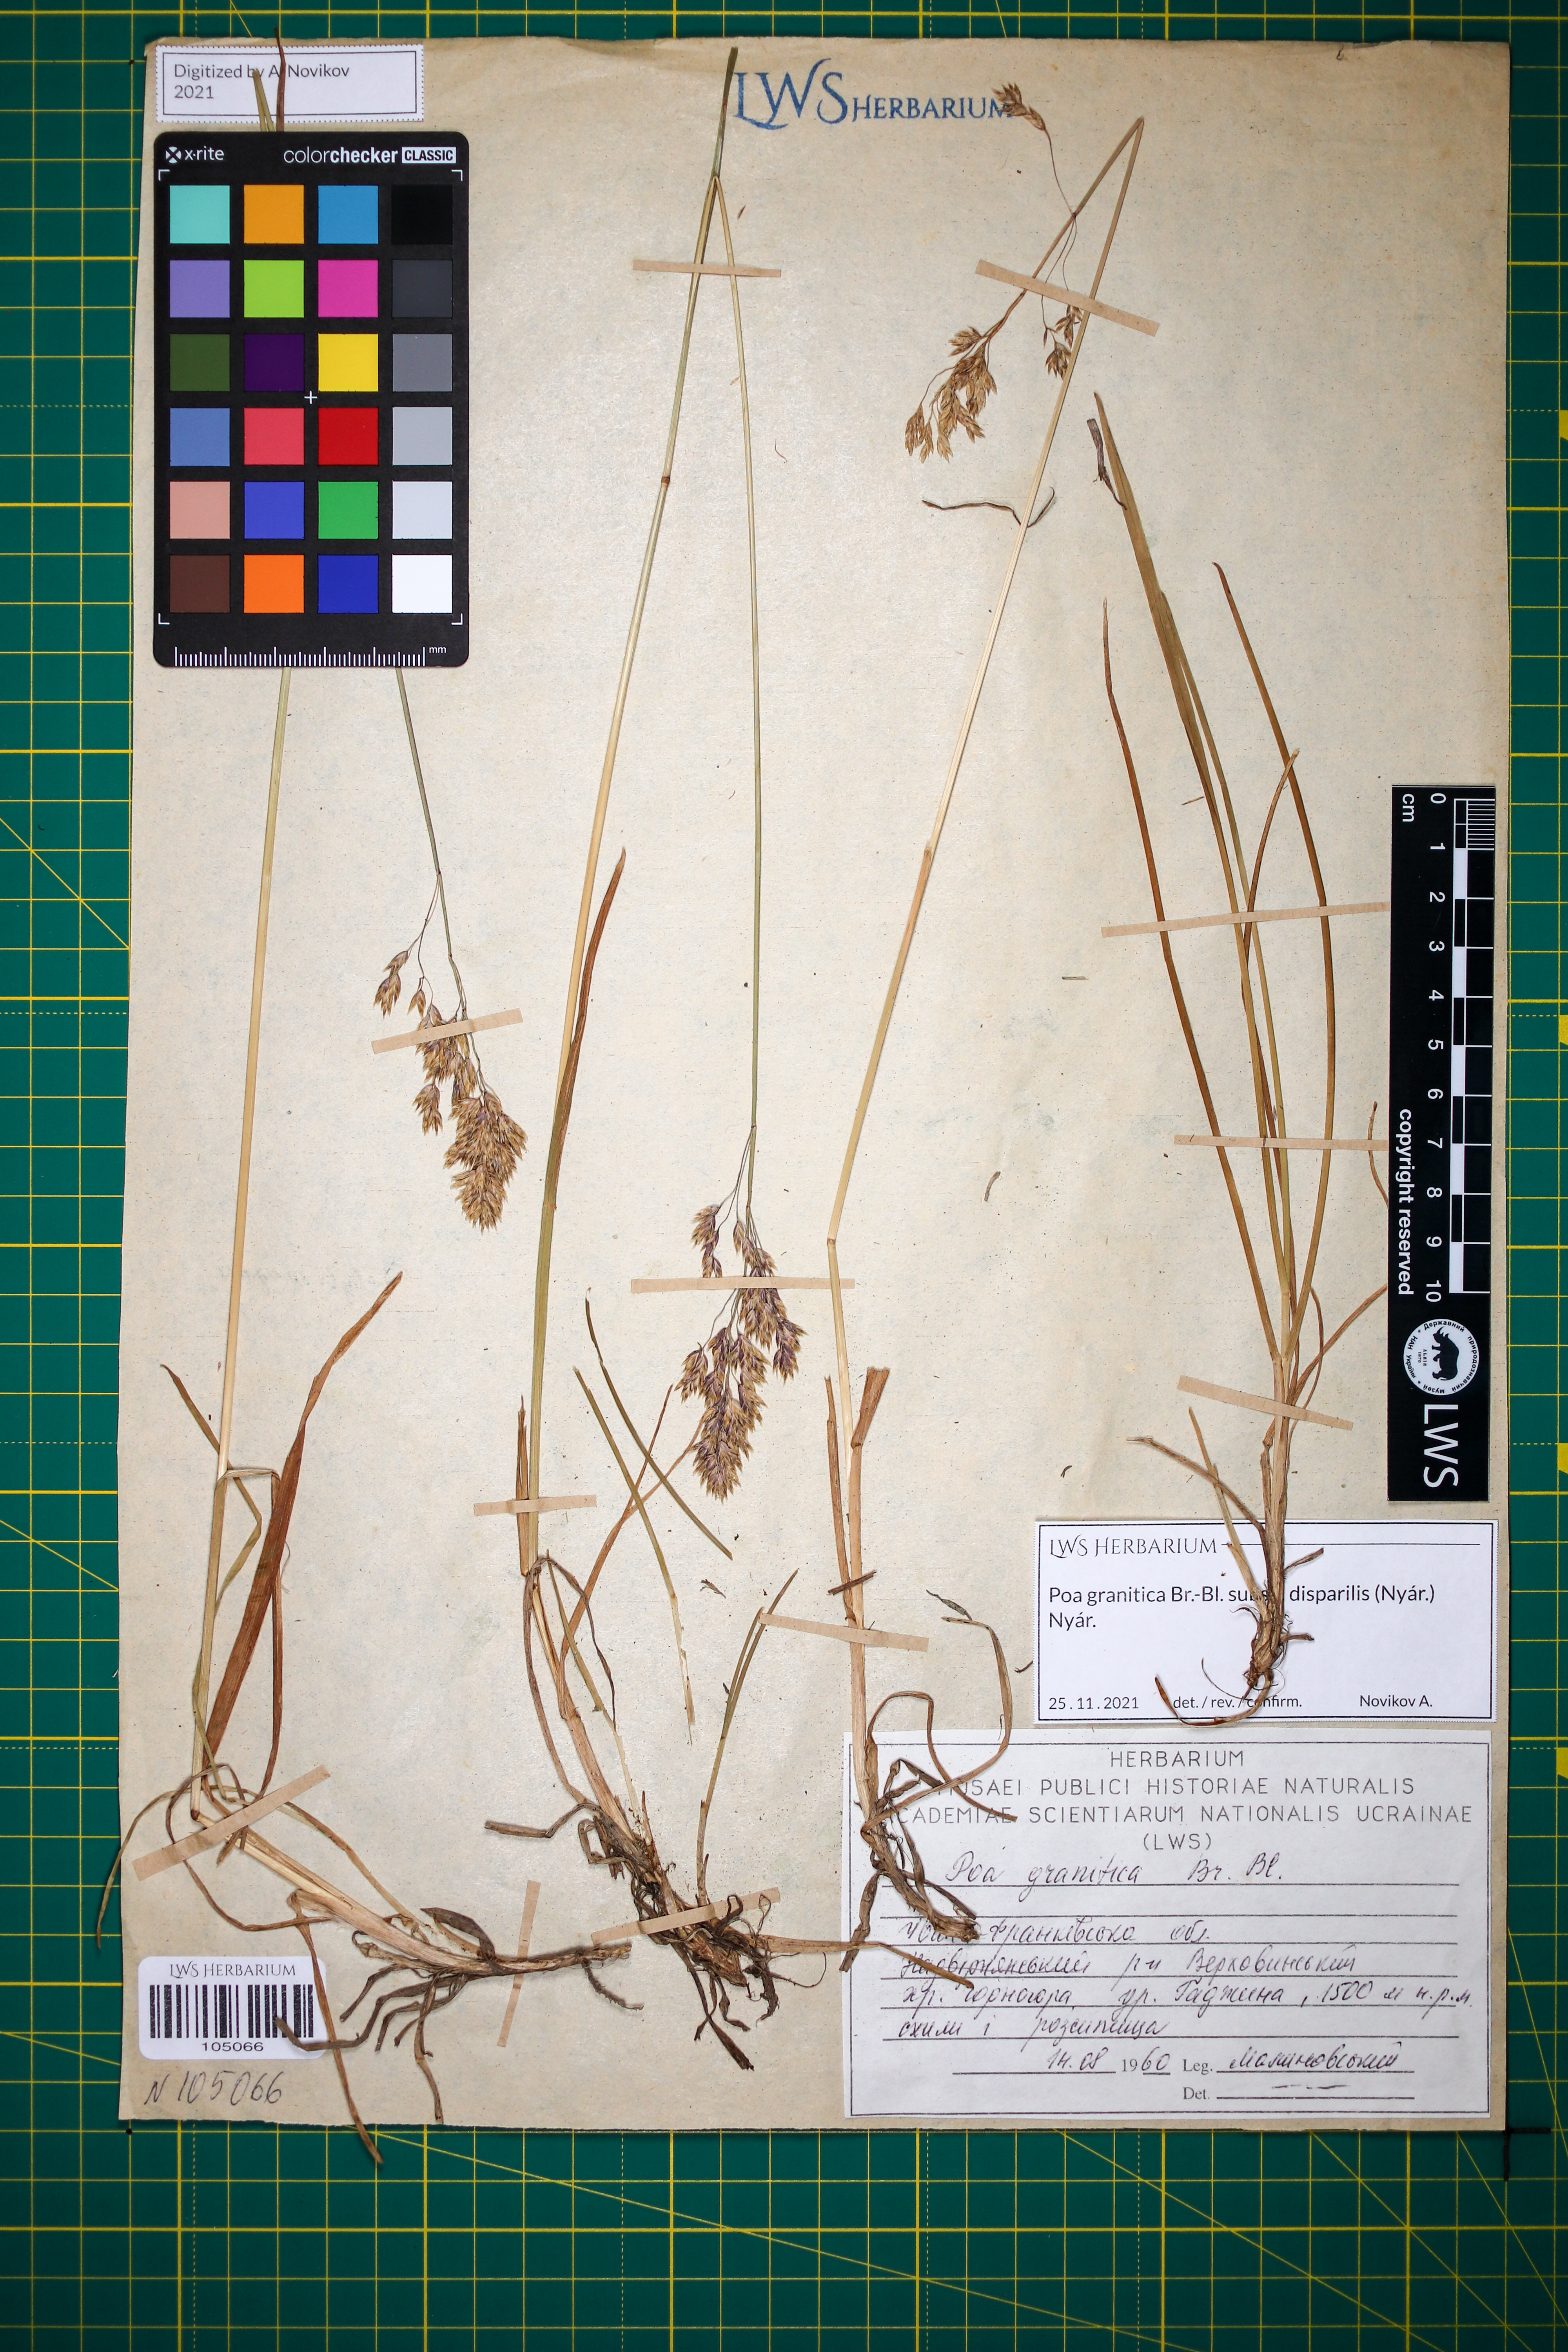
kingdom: Plantae
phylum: Tracheophyta
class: Liliopsida
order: Poales
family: Poaceae
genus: Poa
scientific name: Poa granitica
